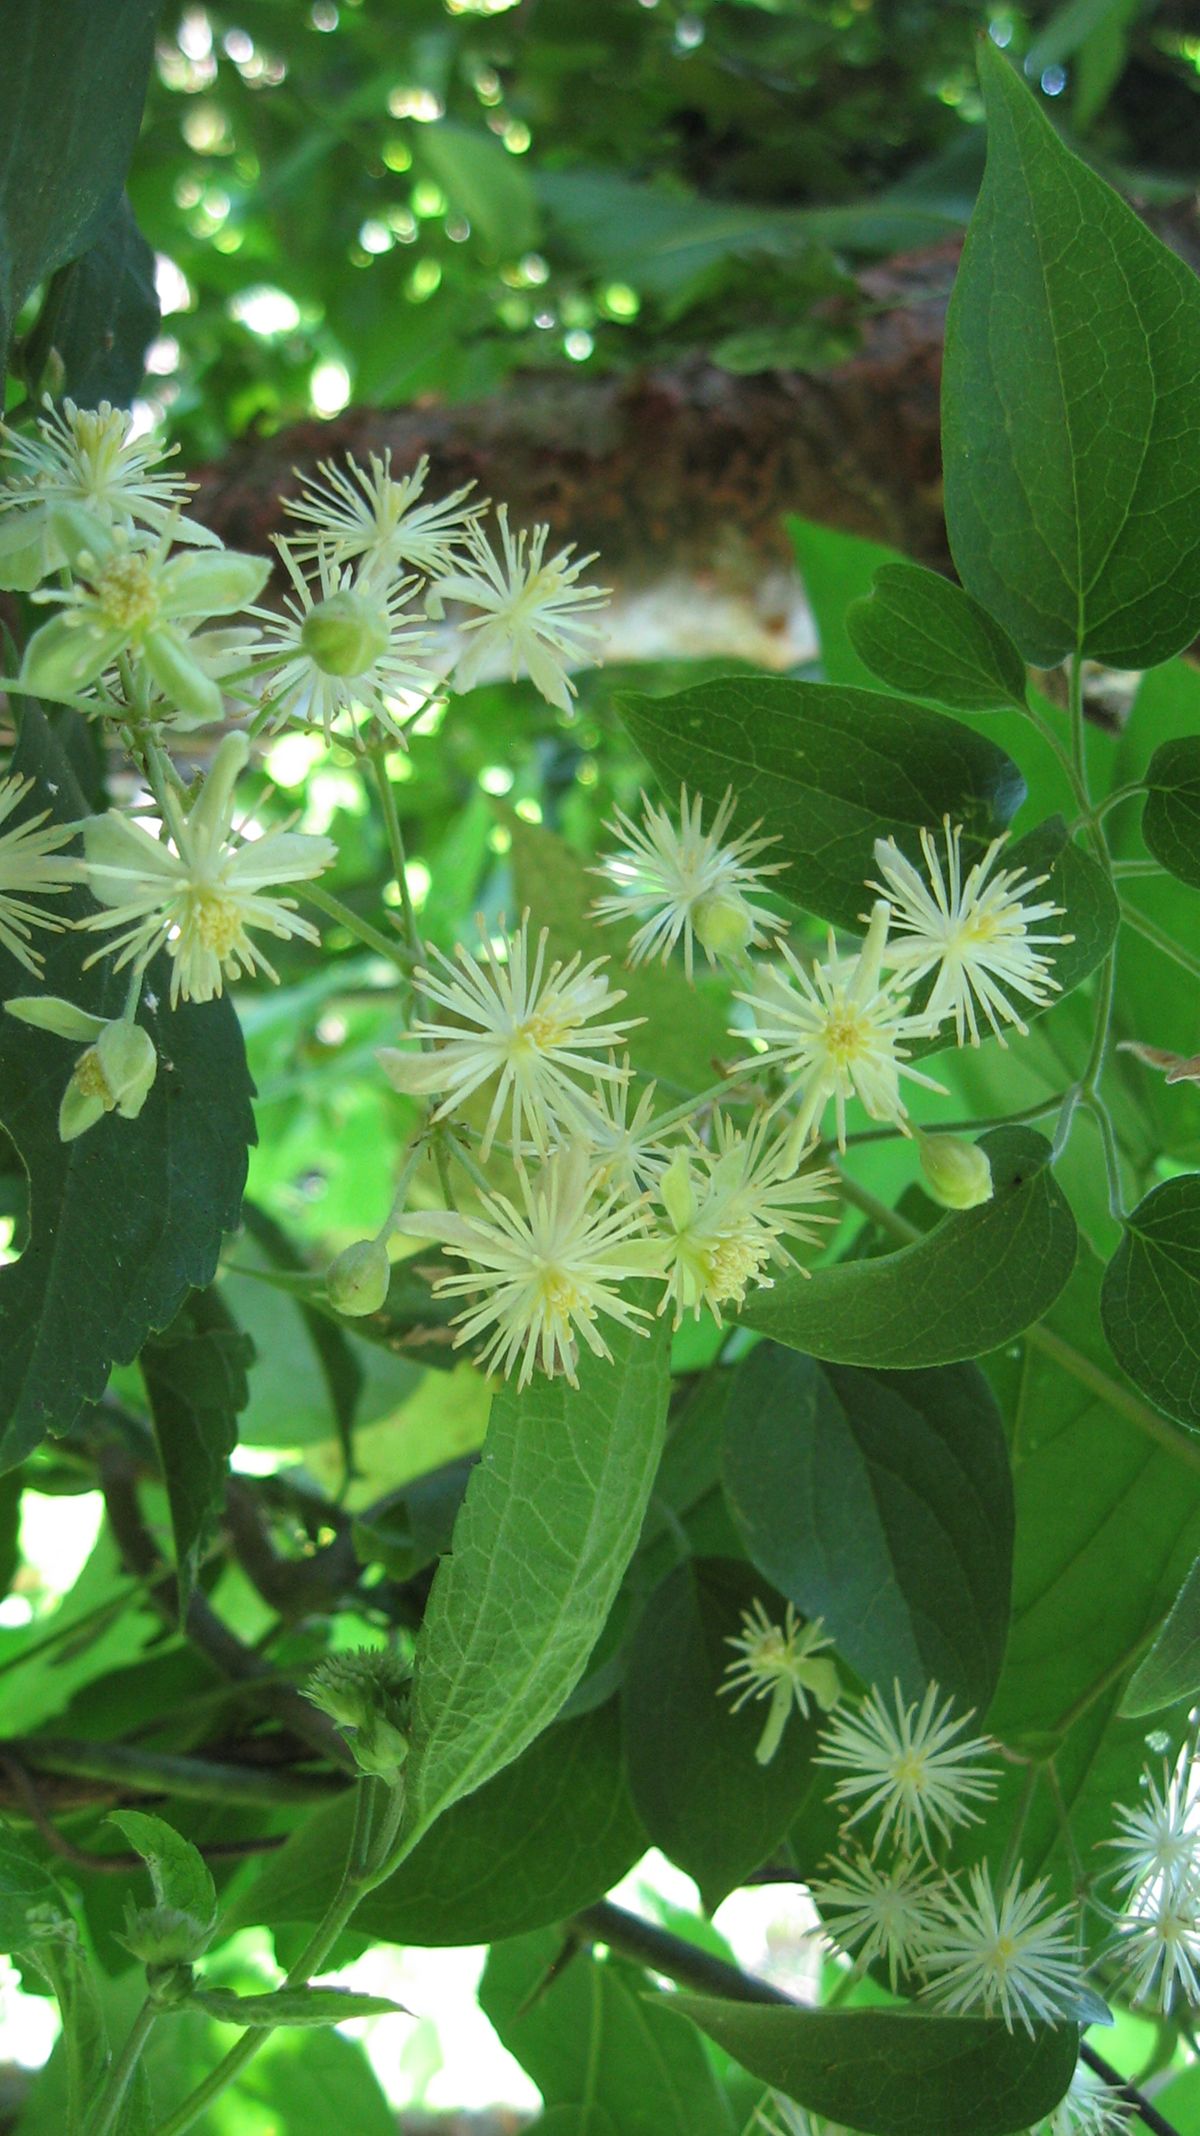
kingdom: Plantae
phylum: Tracheophyta
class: Magnoliopsida
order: Ranunculales
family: Ranunculaceae
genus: Clematis
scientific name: Clematis acapulcensis
